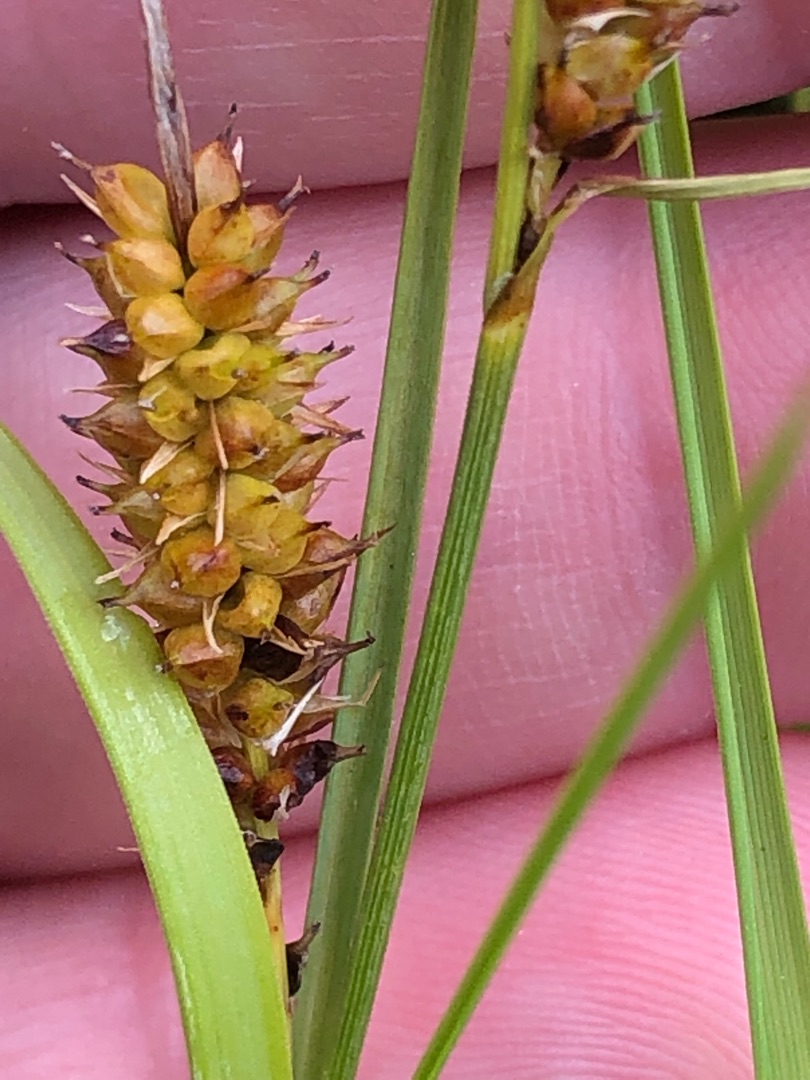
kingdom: Plantae
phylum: Tracheophyta
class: Liliopsida
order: Poales
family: Cyperaceae
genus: Carex
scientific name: Carex rostrata
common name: Næb-star
